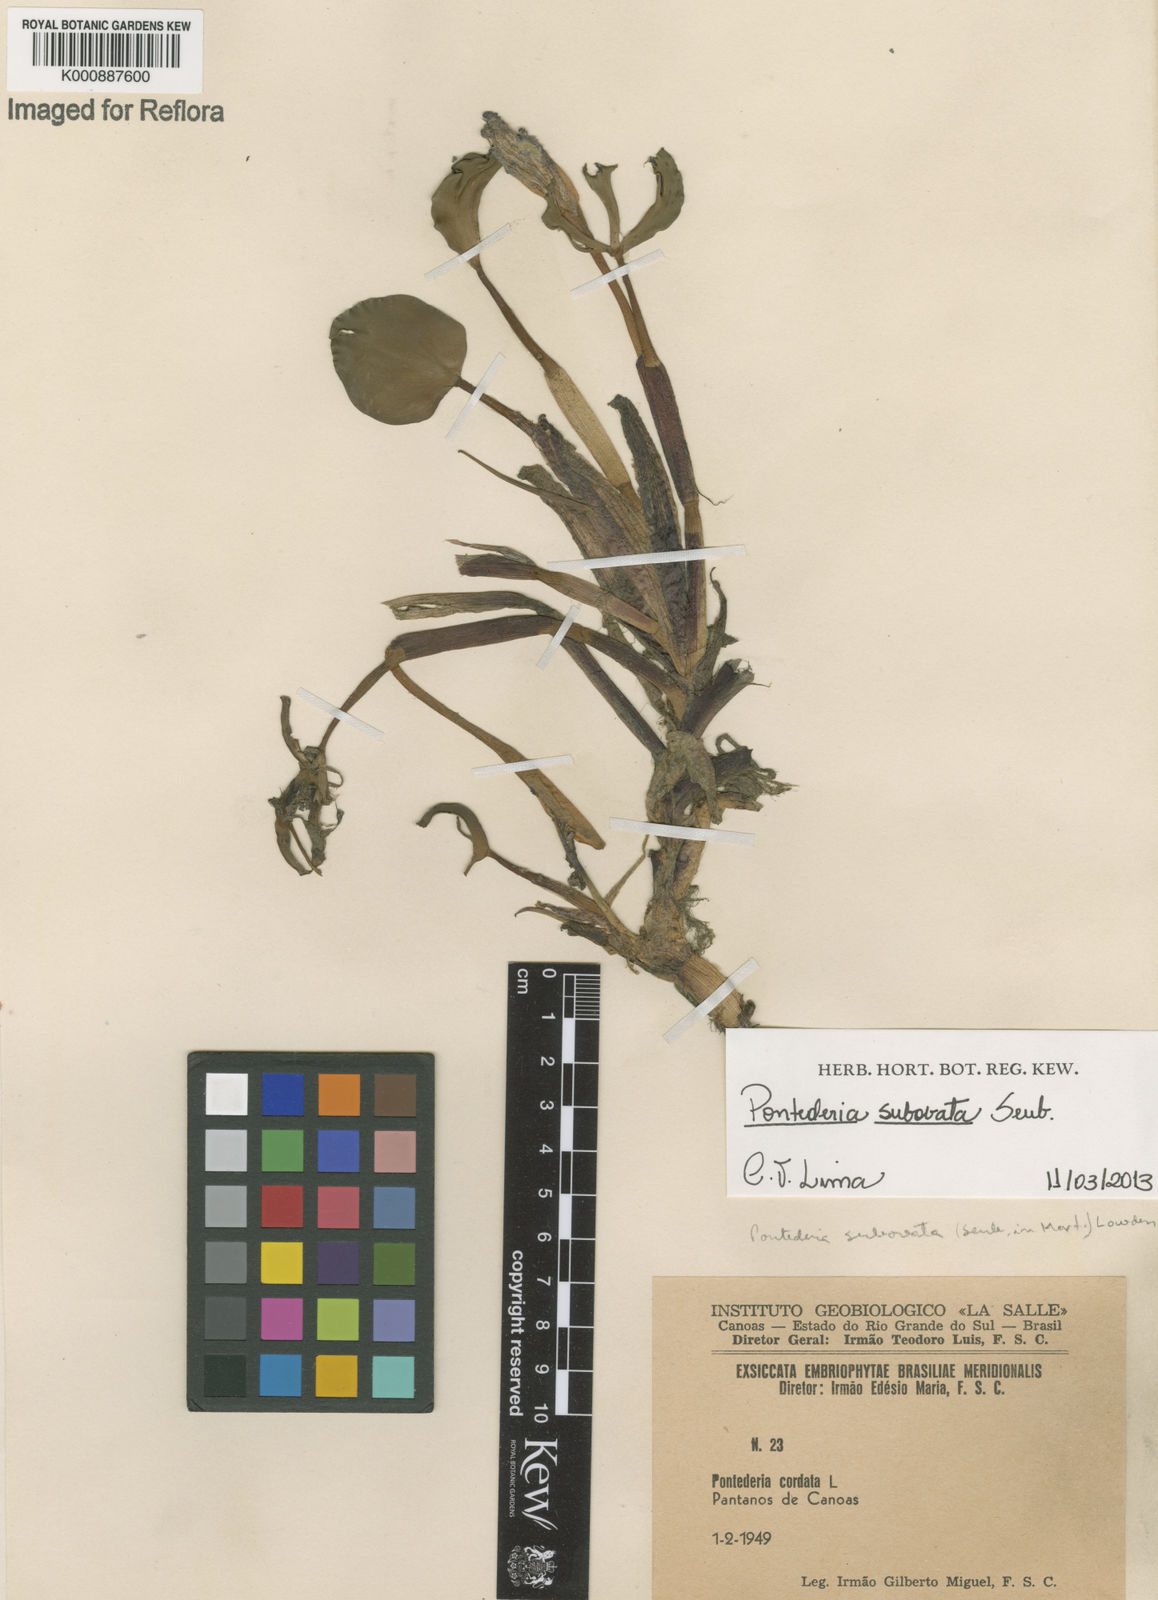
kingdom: Plantae
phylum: Tracheophyta
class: Liliopsida
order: Commelinales
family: Pontederiaceae
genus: Pontederia
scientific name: Pontederia subovata
